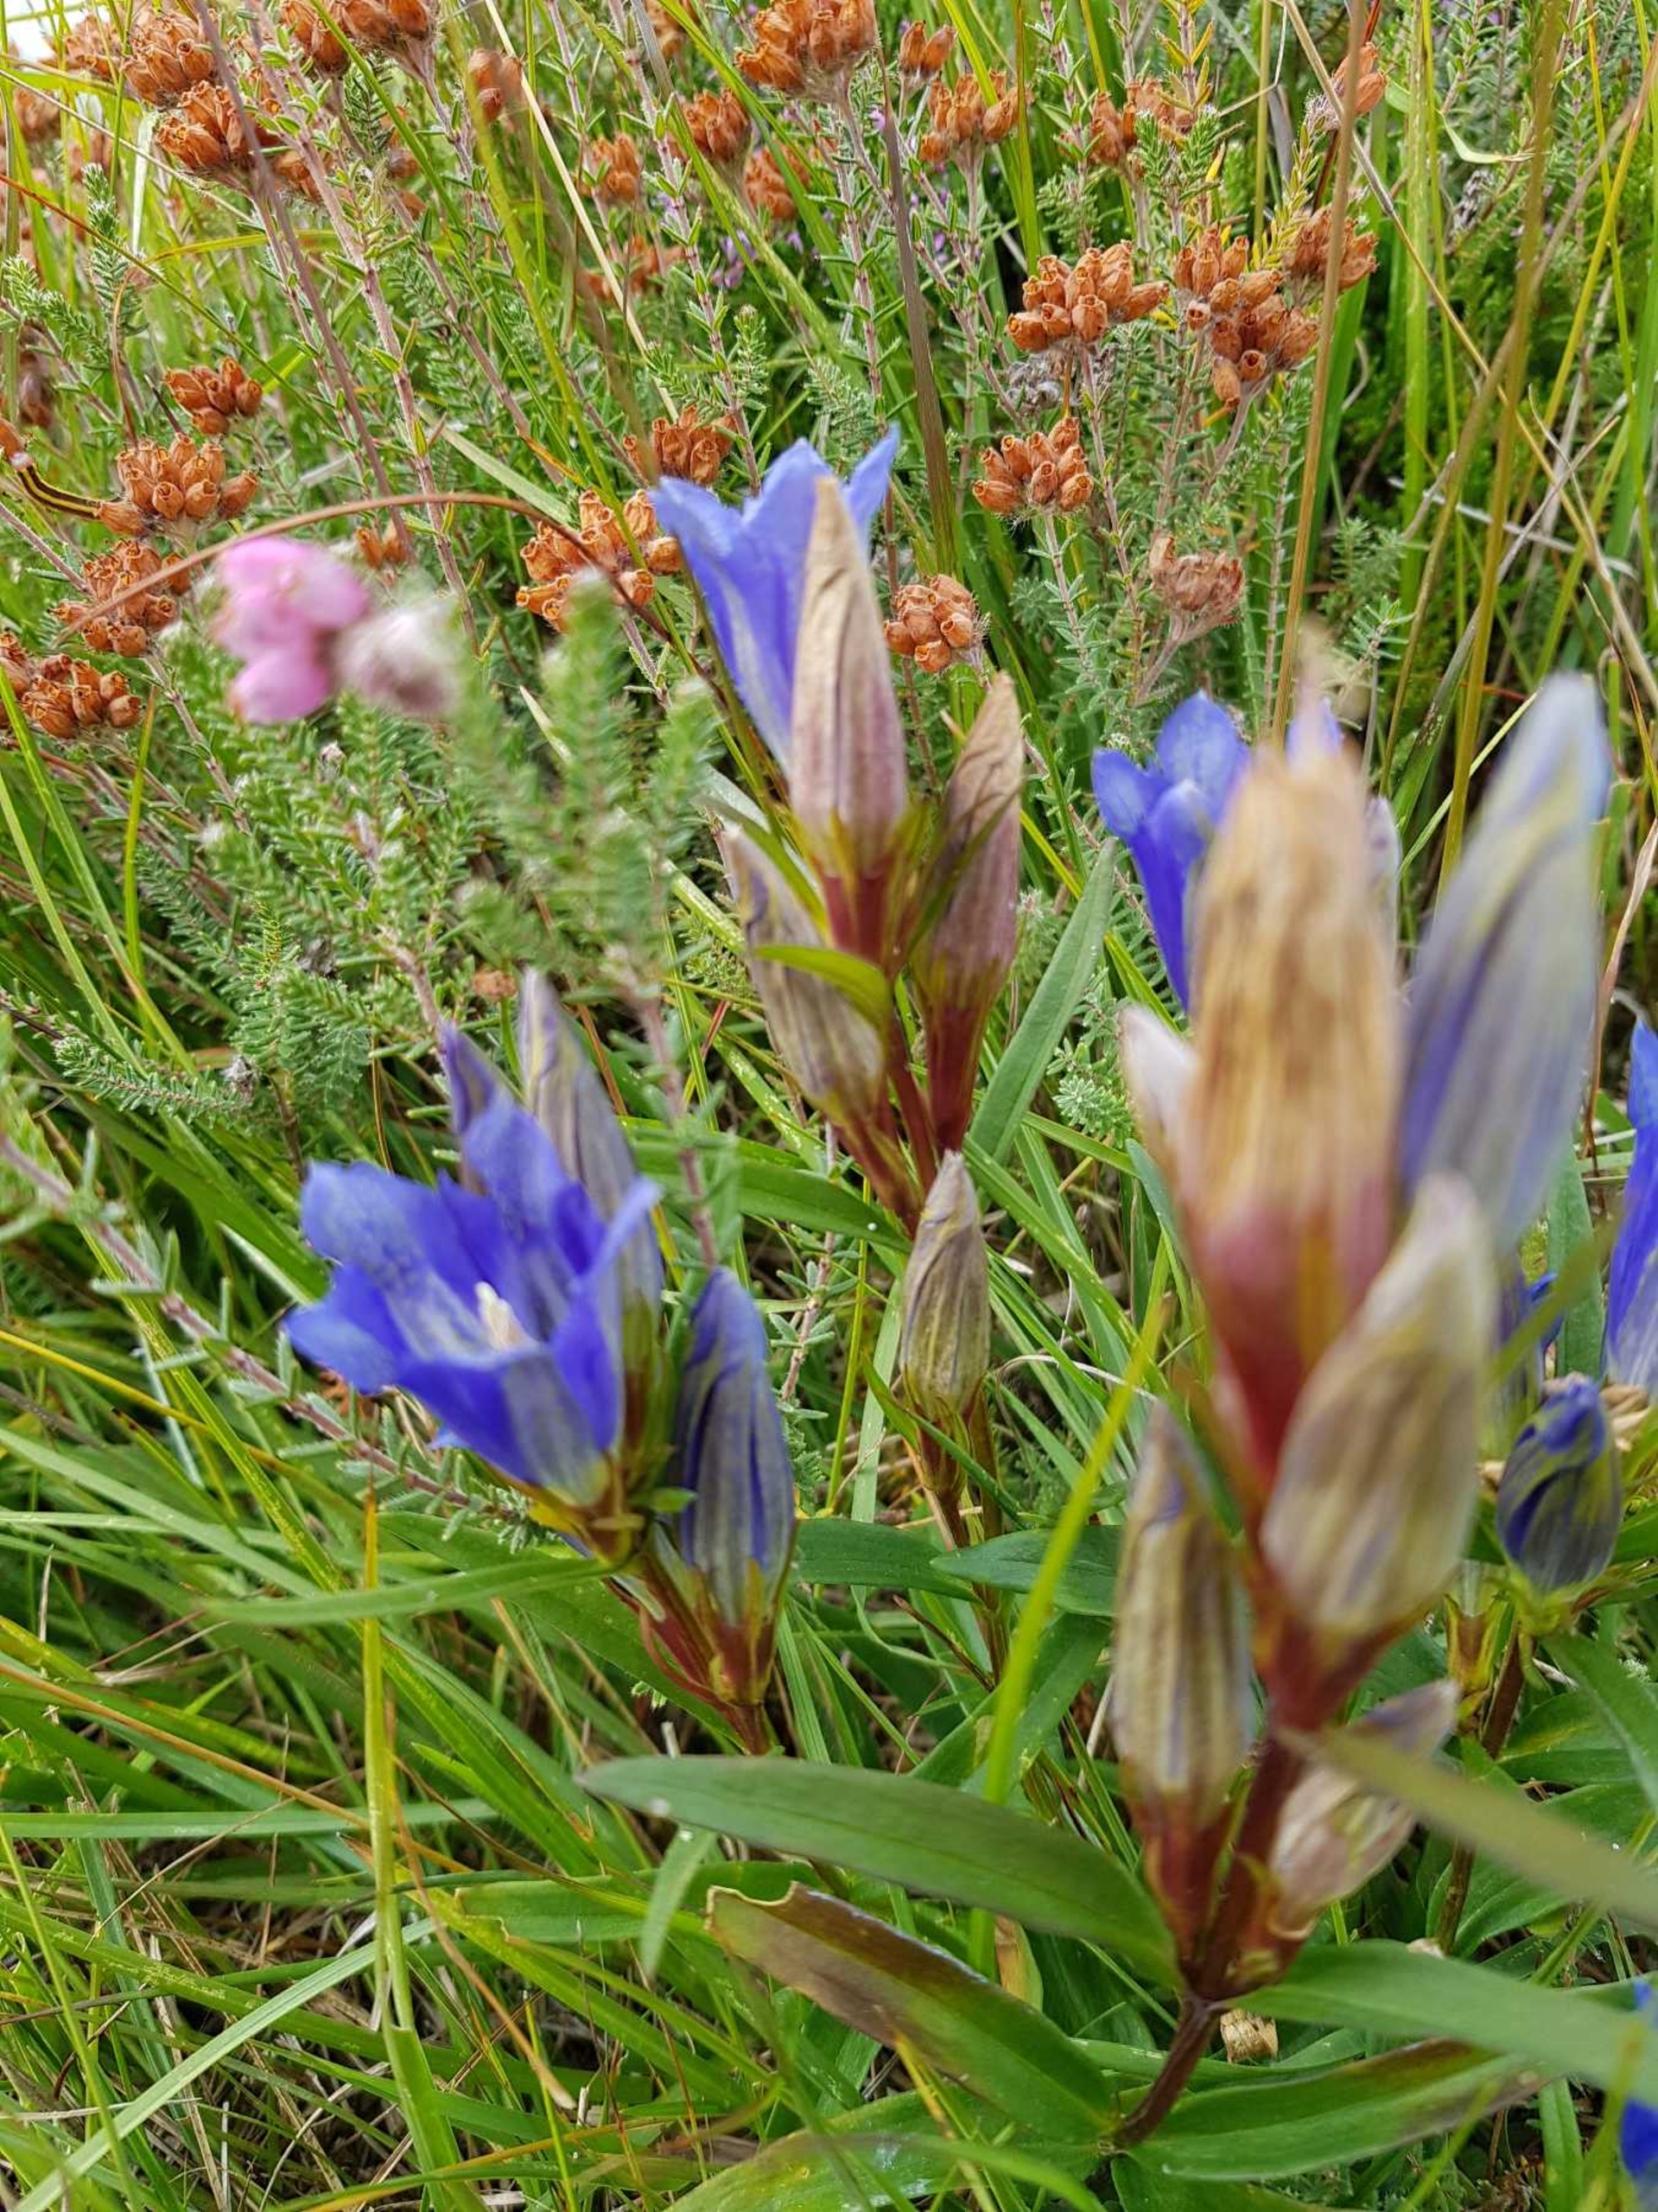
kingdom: Plantae
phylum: Tracheophyta
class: Magnoliopsida
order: Gentianales
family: Gentianaceae
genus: Gentiana
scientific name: Gentiana pneumonanthe
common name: Klokke-ensian
